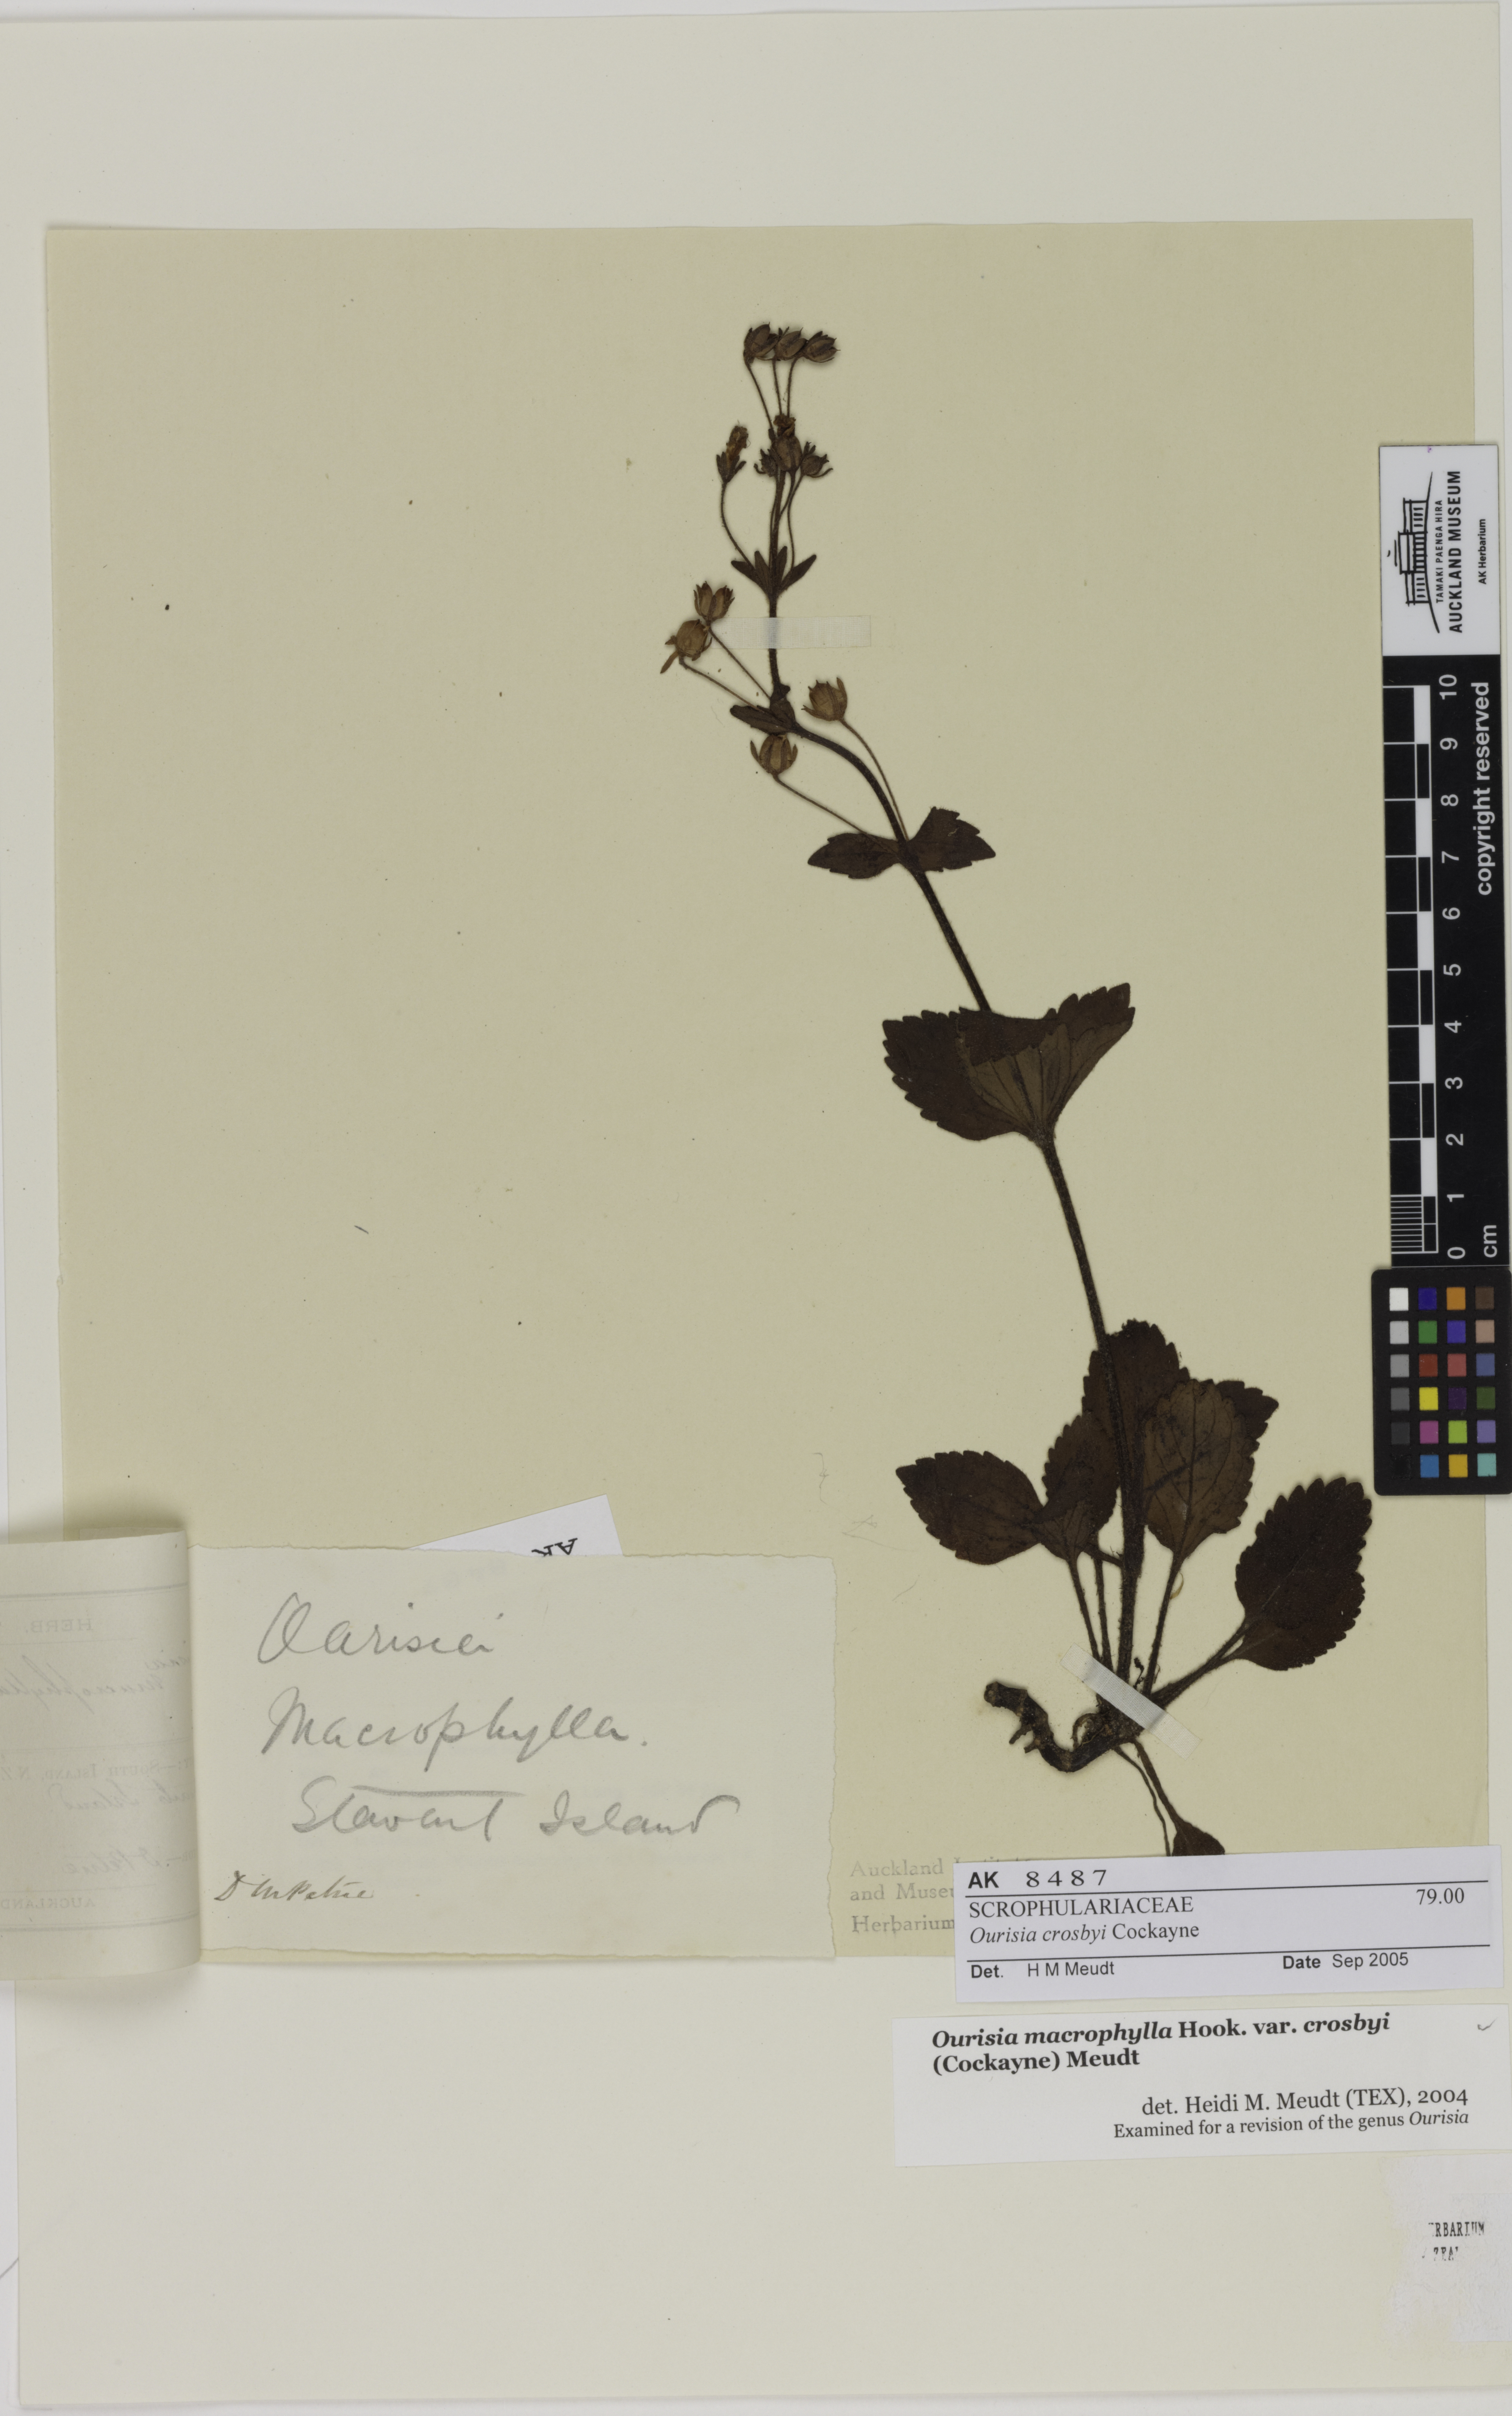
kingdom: Plantae
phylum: Tracheophyta
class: Magnoliopsida
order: Lamiales
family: Plantaginaceae
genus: Ourisia
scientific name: Ourisia crosbyi
